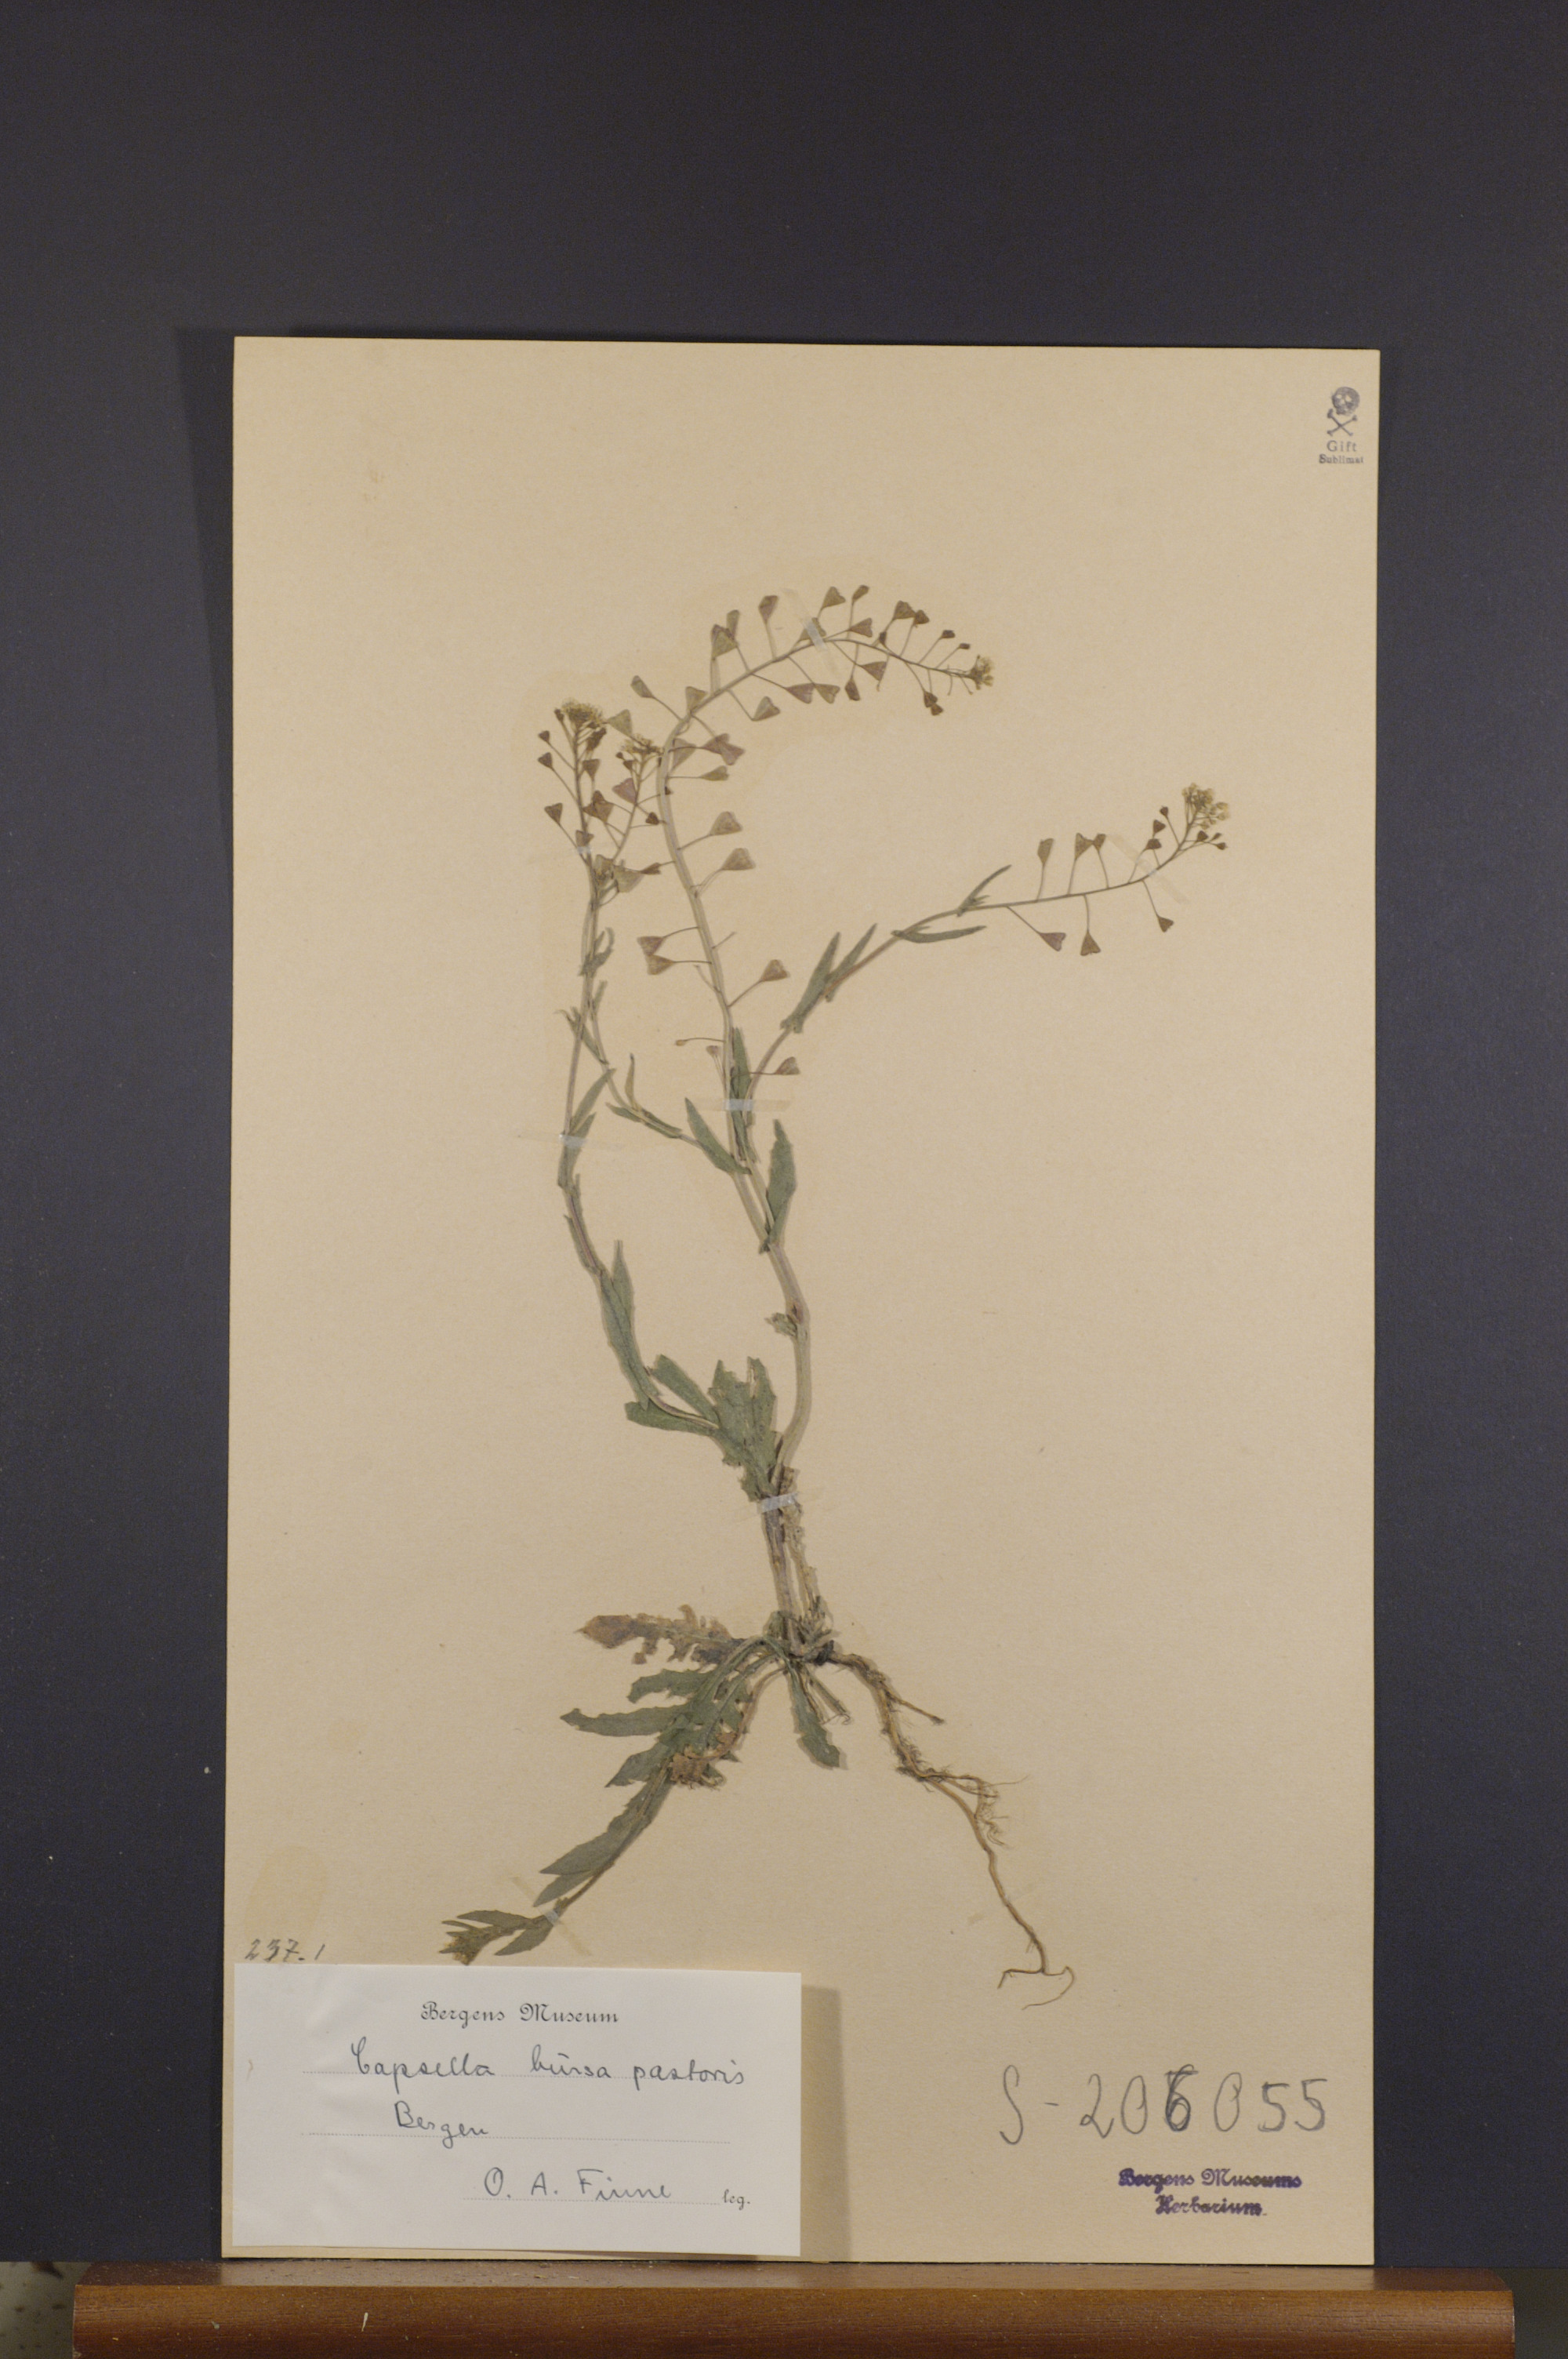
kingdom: Plantae
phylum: Tracheophyta
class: Magnoliopsida
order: Brassicales
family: Brassicaceae
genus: Capsella
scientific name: Capsella bursa-pastoris
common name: Shepherd's purse
